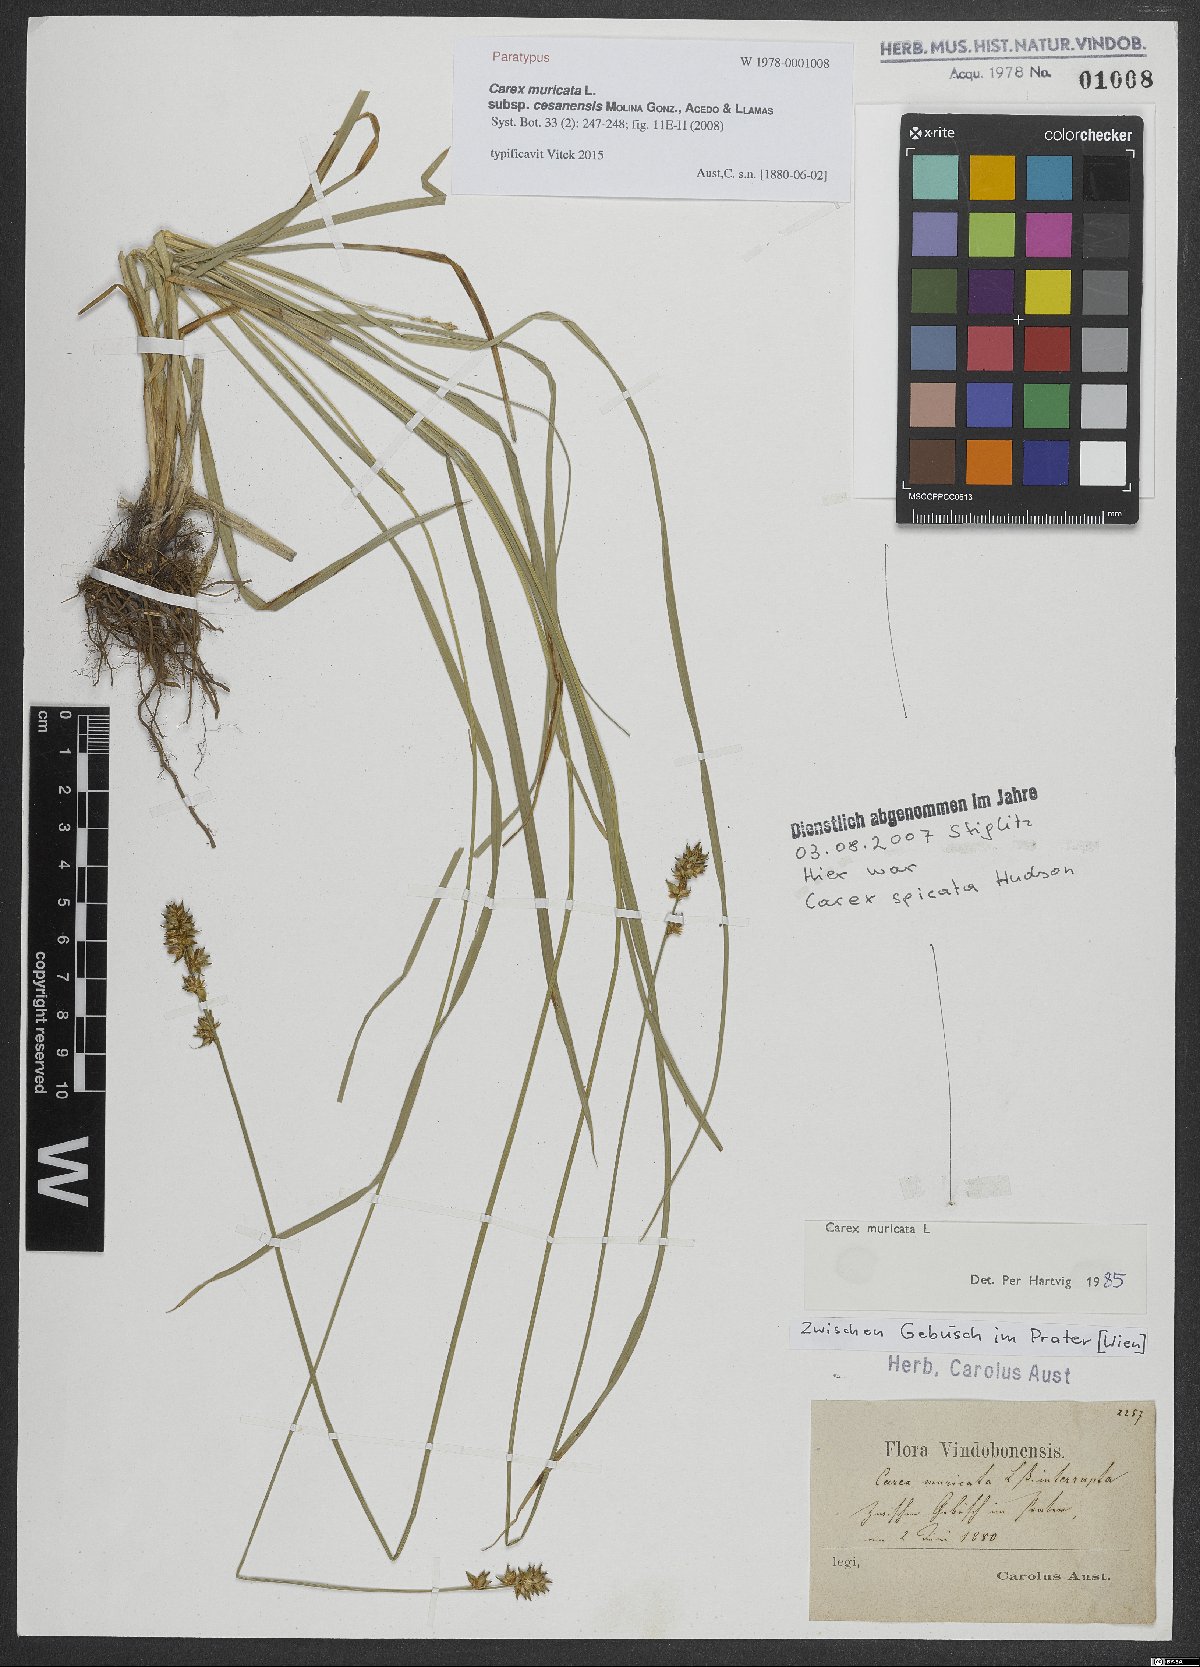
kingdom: Plantae
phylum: Tracheophyta
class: Liliopsida
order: Poales
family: Cyperaceae
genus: Carex
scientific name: Carex muricata
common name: Rough sedge
